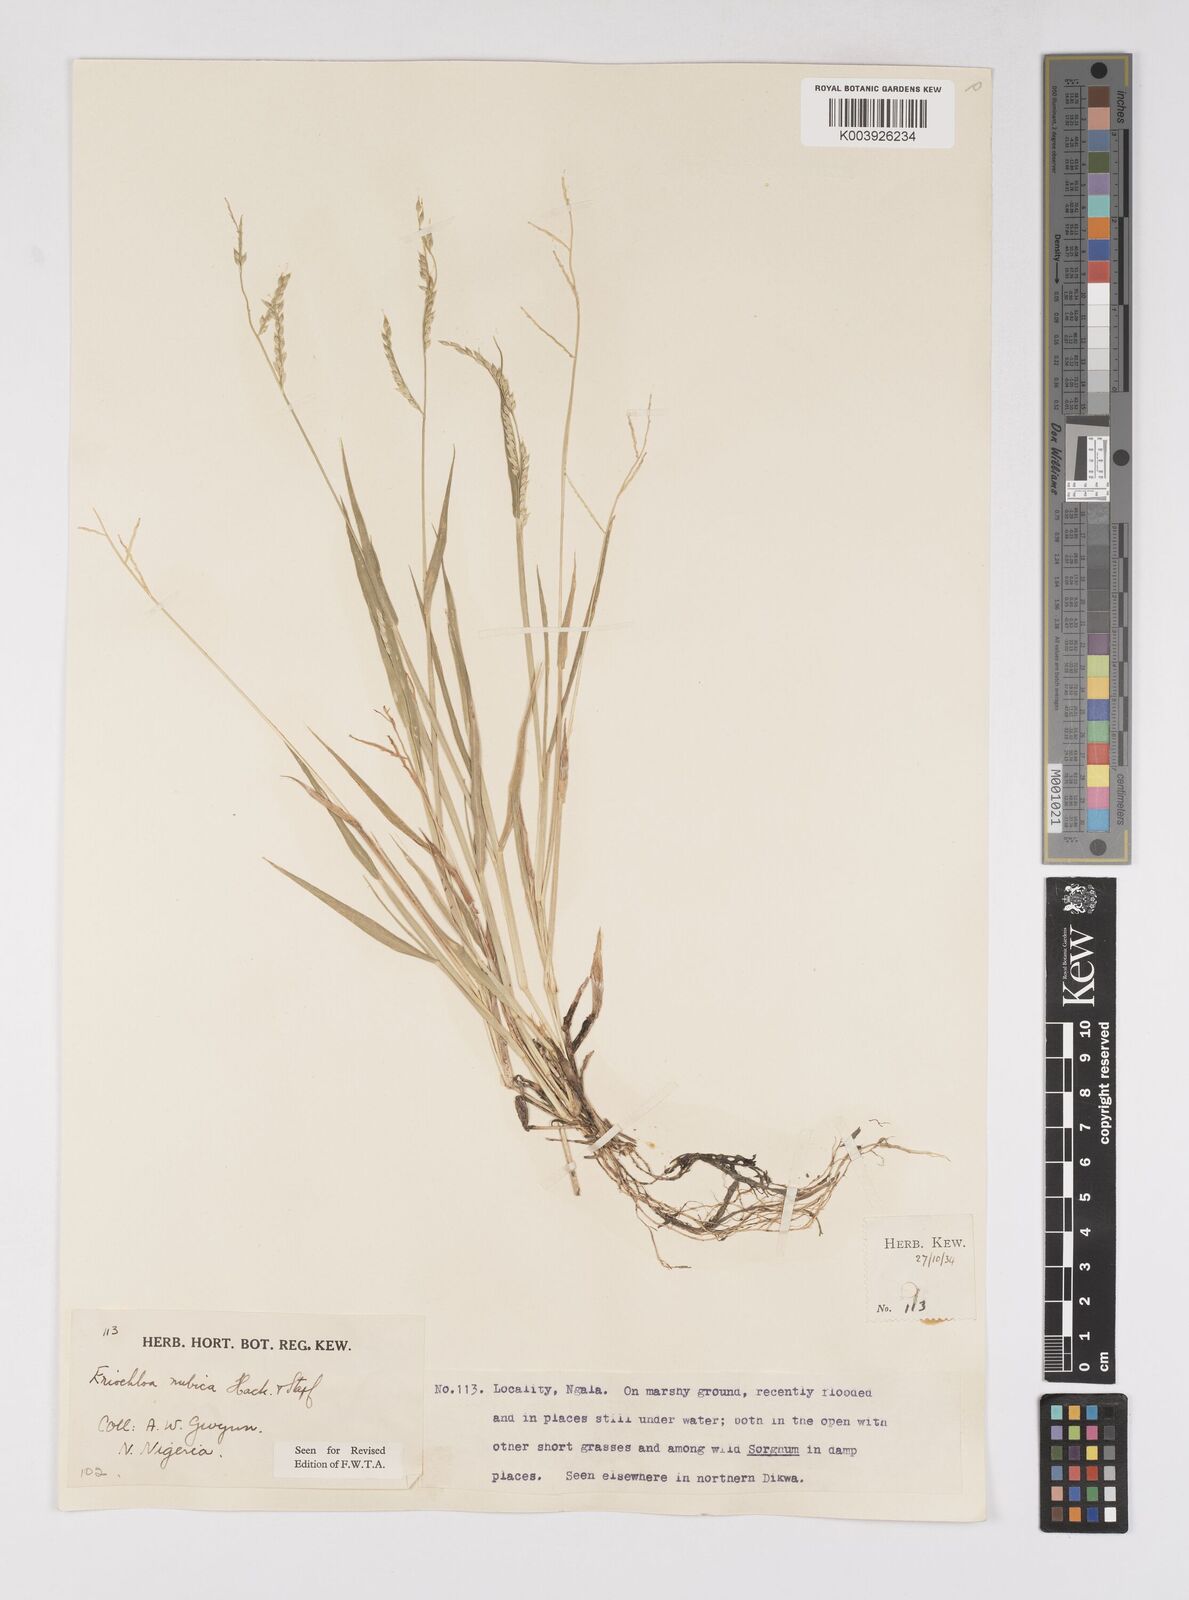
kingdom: Plantae
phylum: Tracheophyta
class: Liliopsida
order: Poales
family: Poaceae
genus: Eriochloa
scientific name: Eriochloa barbatus
